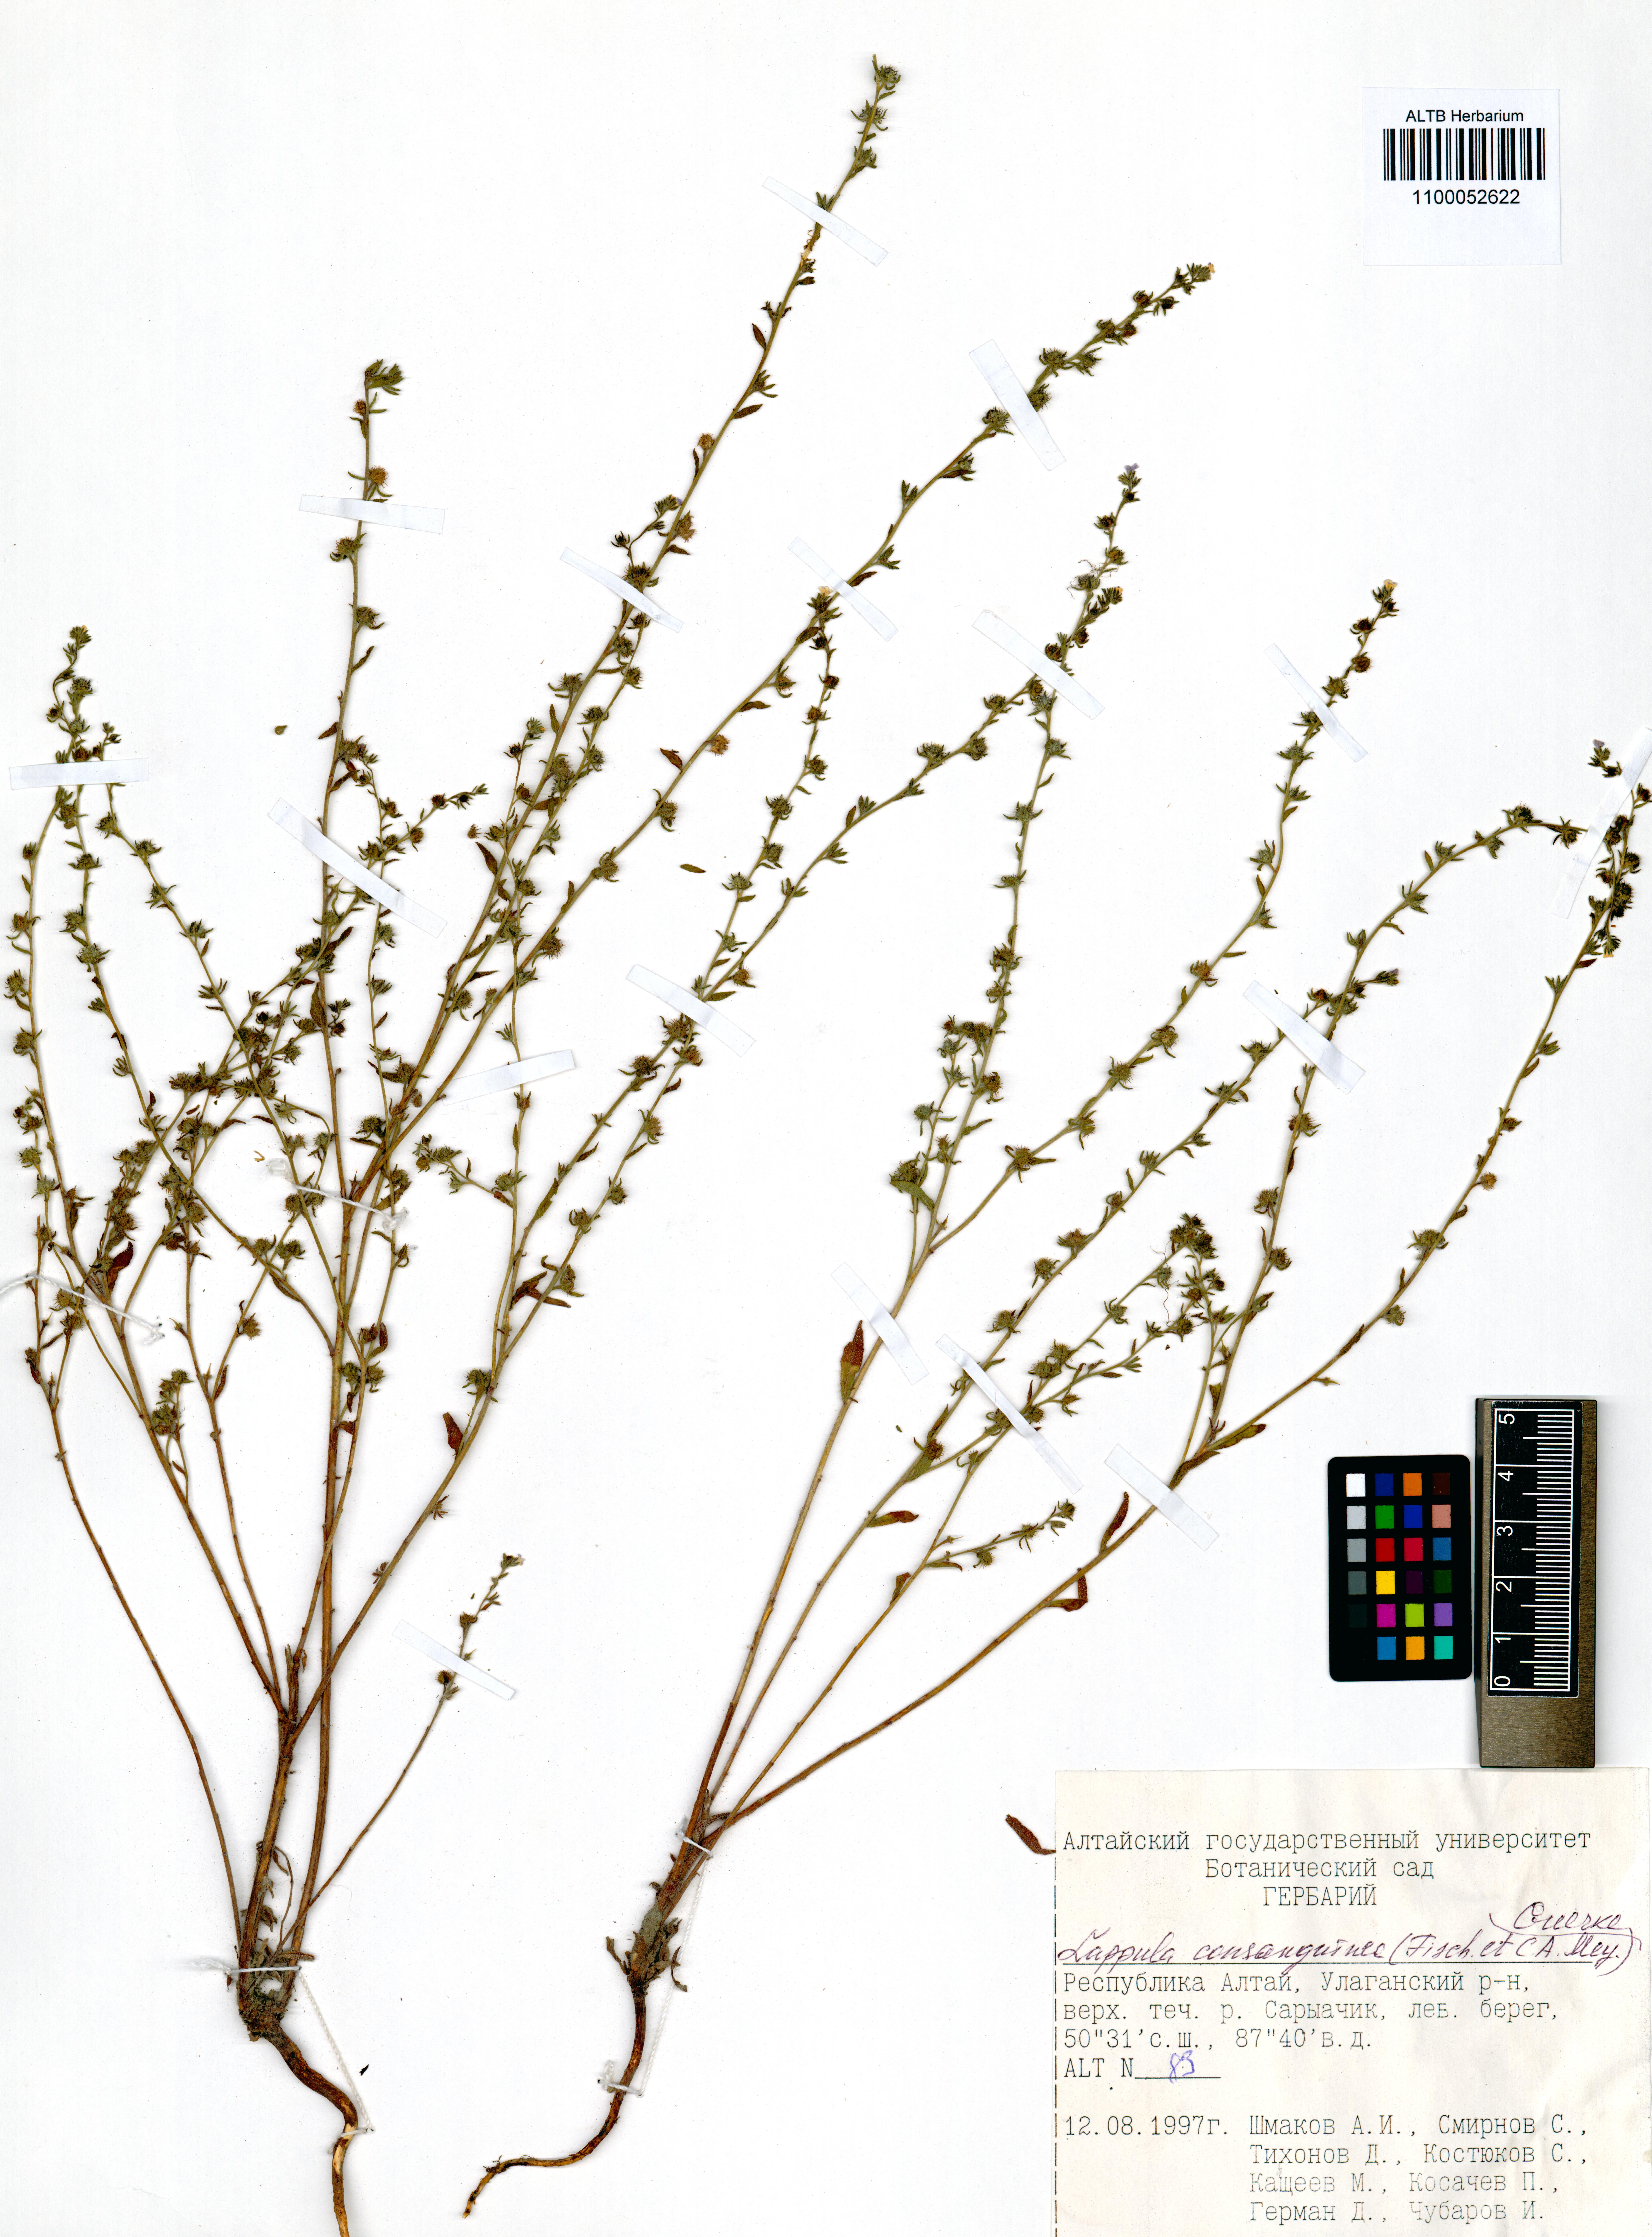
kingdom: Plantae
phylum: Tracheophyta
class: Magnoliopsida
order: Boraginales
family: Boraginaceae
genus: Lappula
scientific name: Lappula squarrosa
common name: European stickseed
